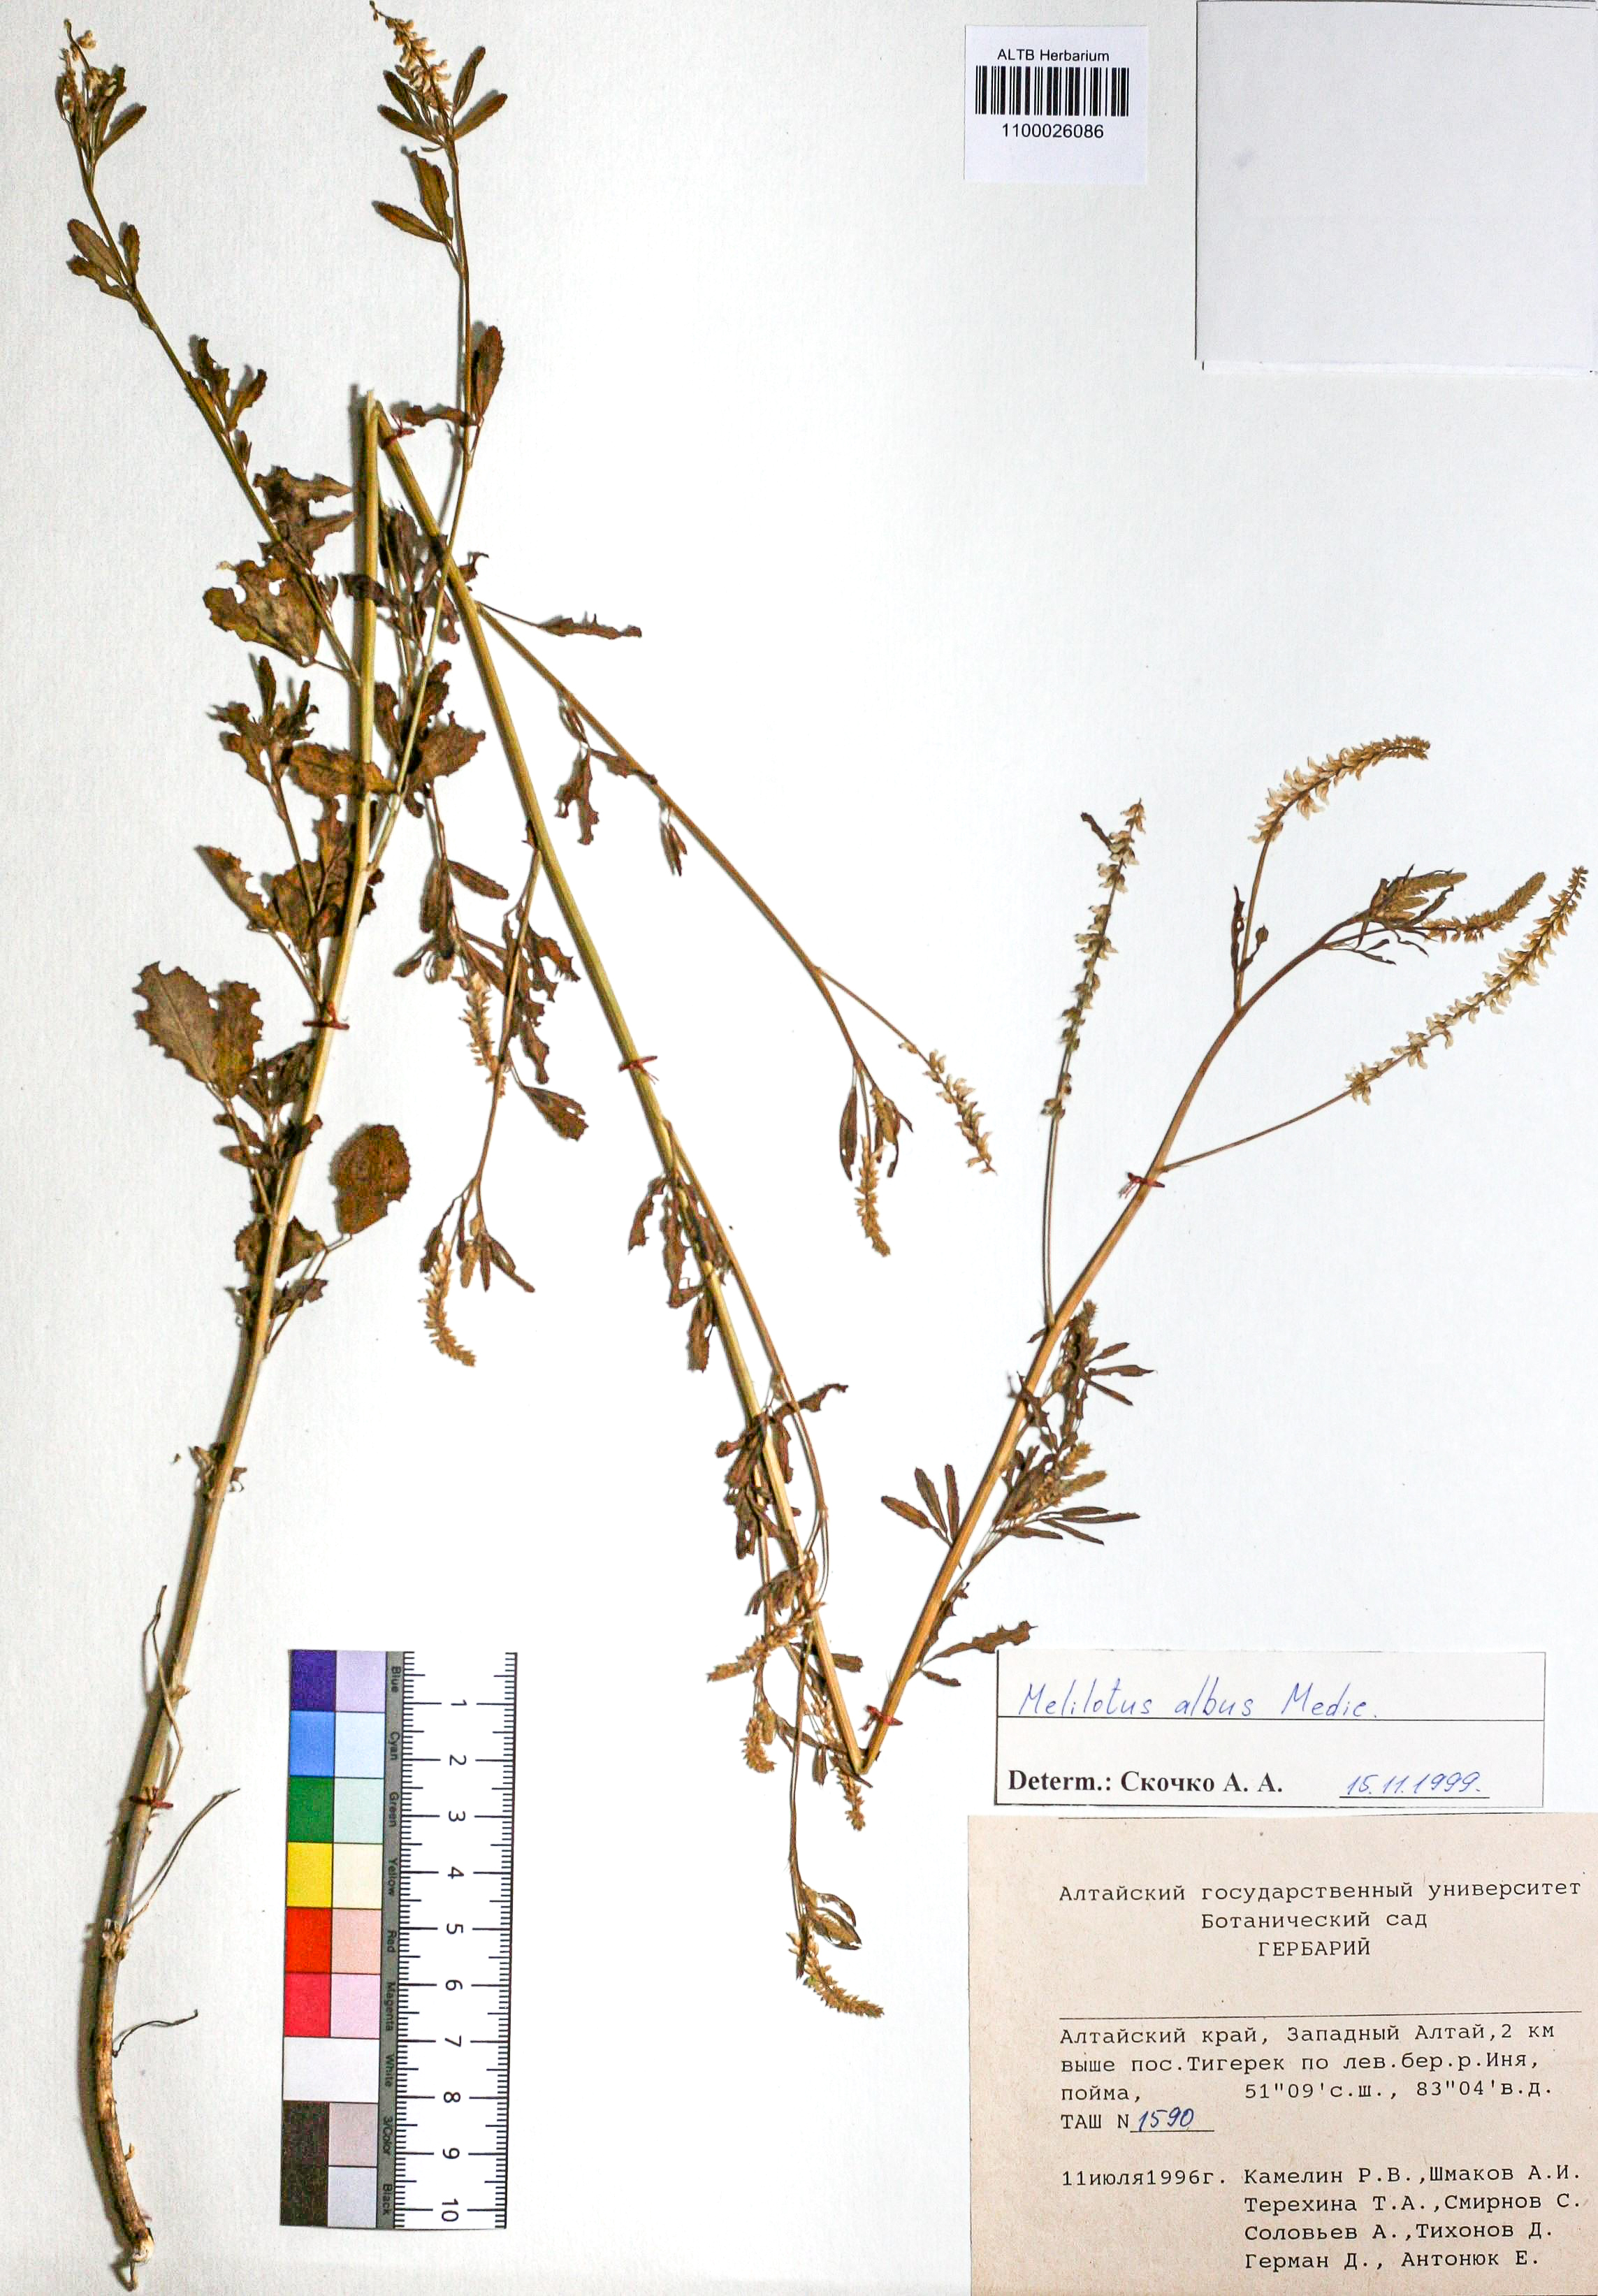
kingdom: Plantae
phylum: Tracheophyta
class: Magnoliopsida
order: Fabales
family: Fabaceae
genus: Melilotus
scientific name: Melilotus albus
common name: White melilot
